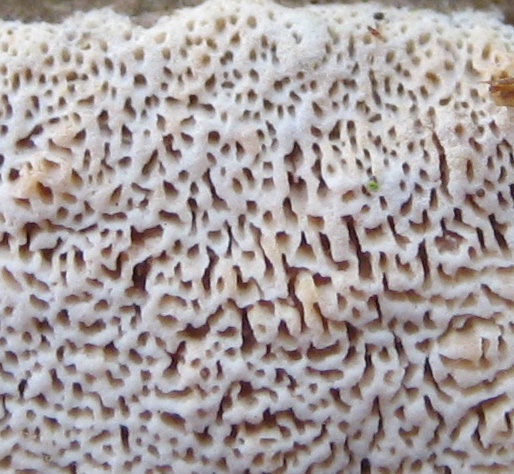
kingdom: Fungi
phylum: Basidiomycota
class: Agaricomycetes
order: Hymenochaetales
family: Schizoporaceae
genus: Xylodon
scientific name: Xylodon subtropicus
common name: labyrint-tandsvamp
